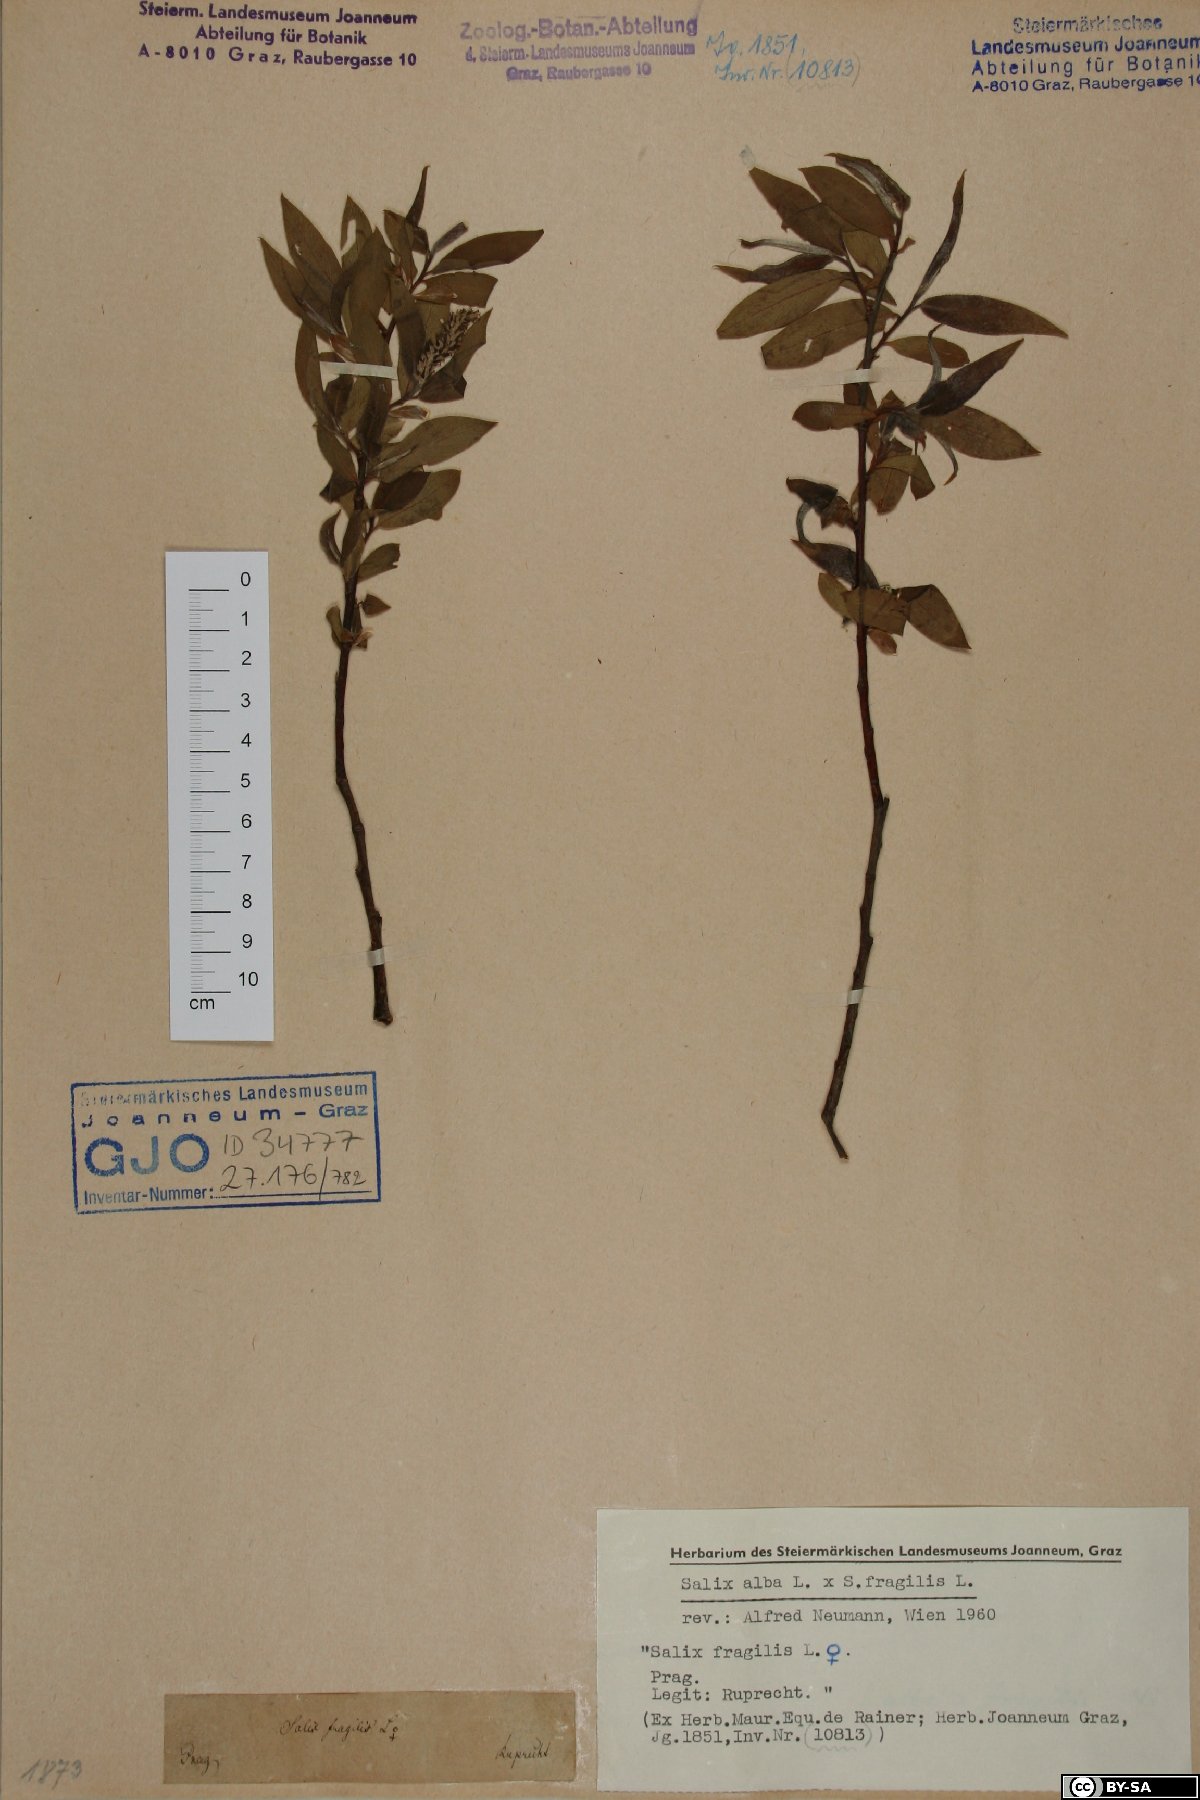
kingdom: Plantae
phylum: Tracheophyta
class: Magnoliopsida
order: Malpighiales
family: Salicaceae
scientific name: Salicaceae
